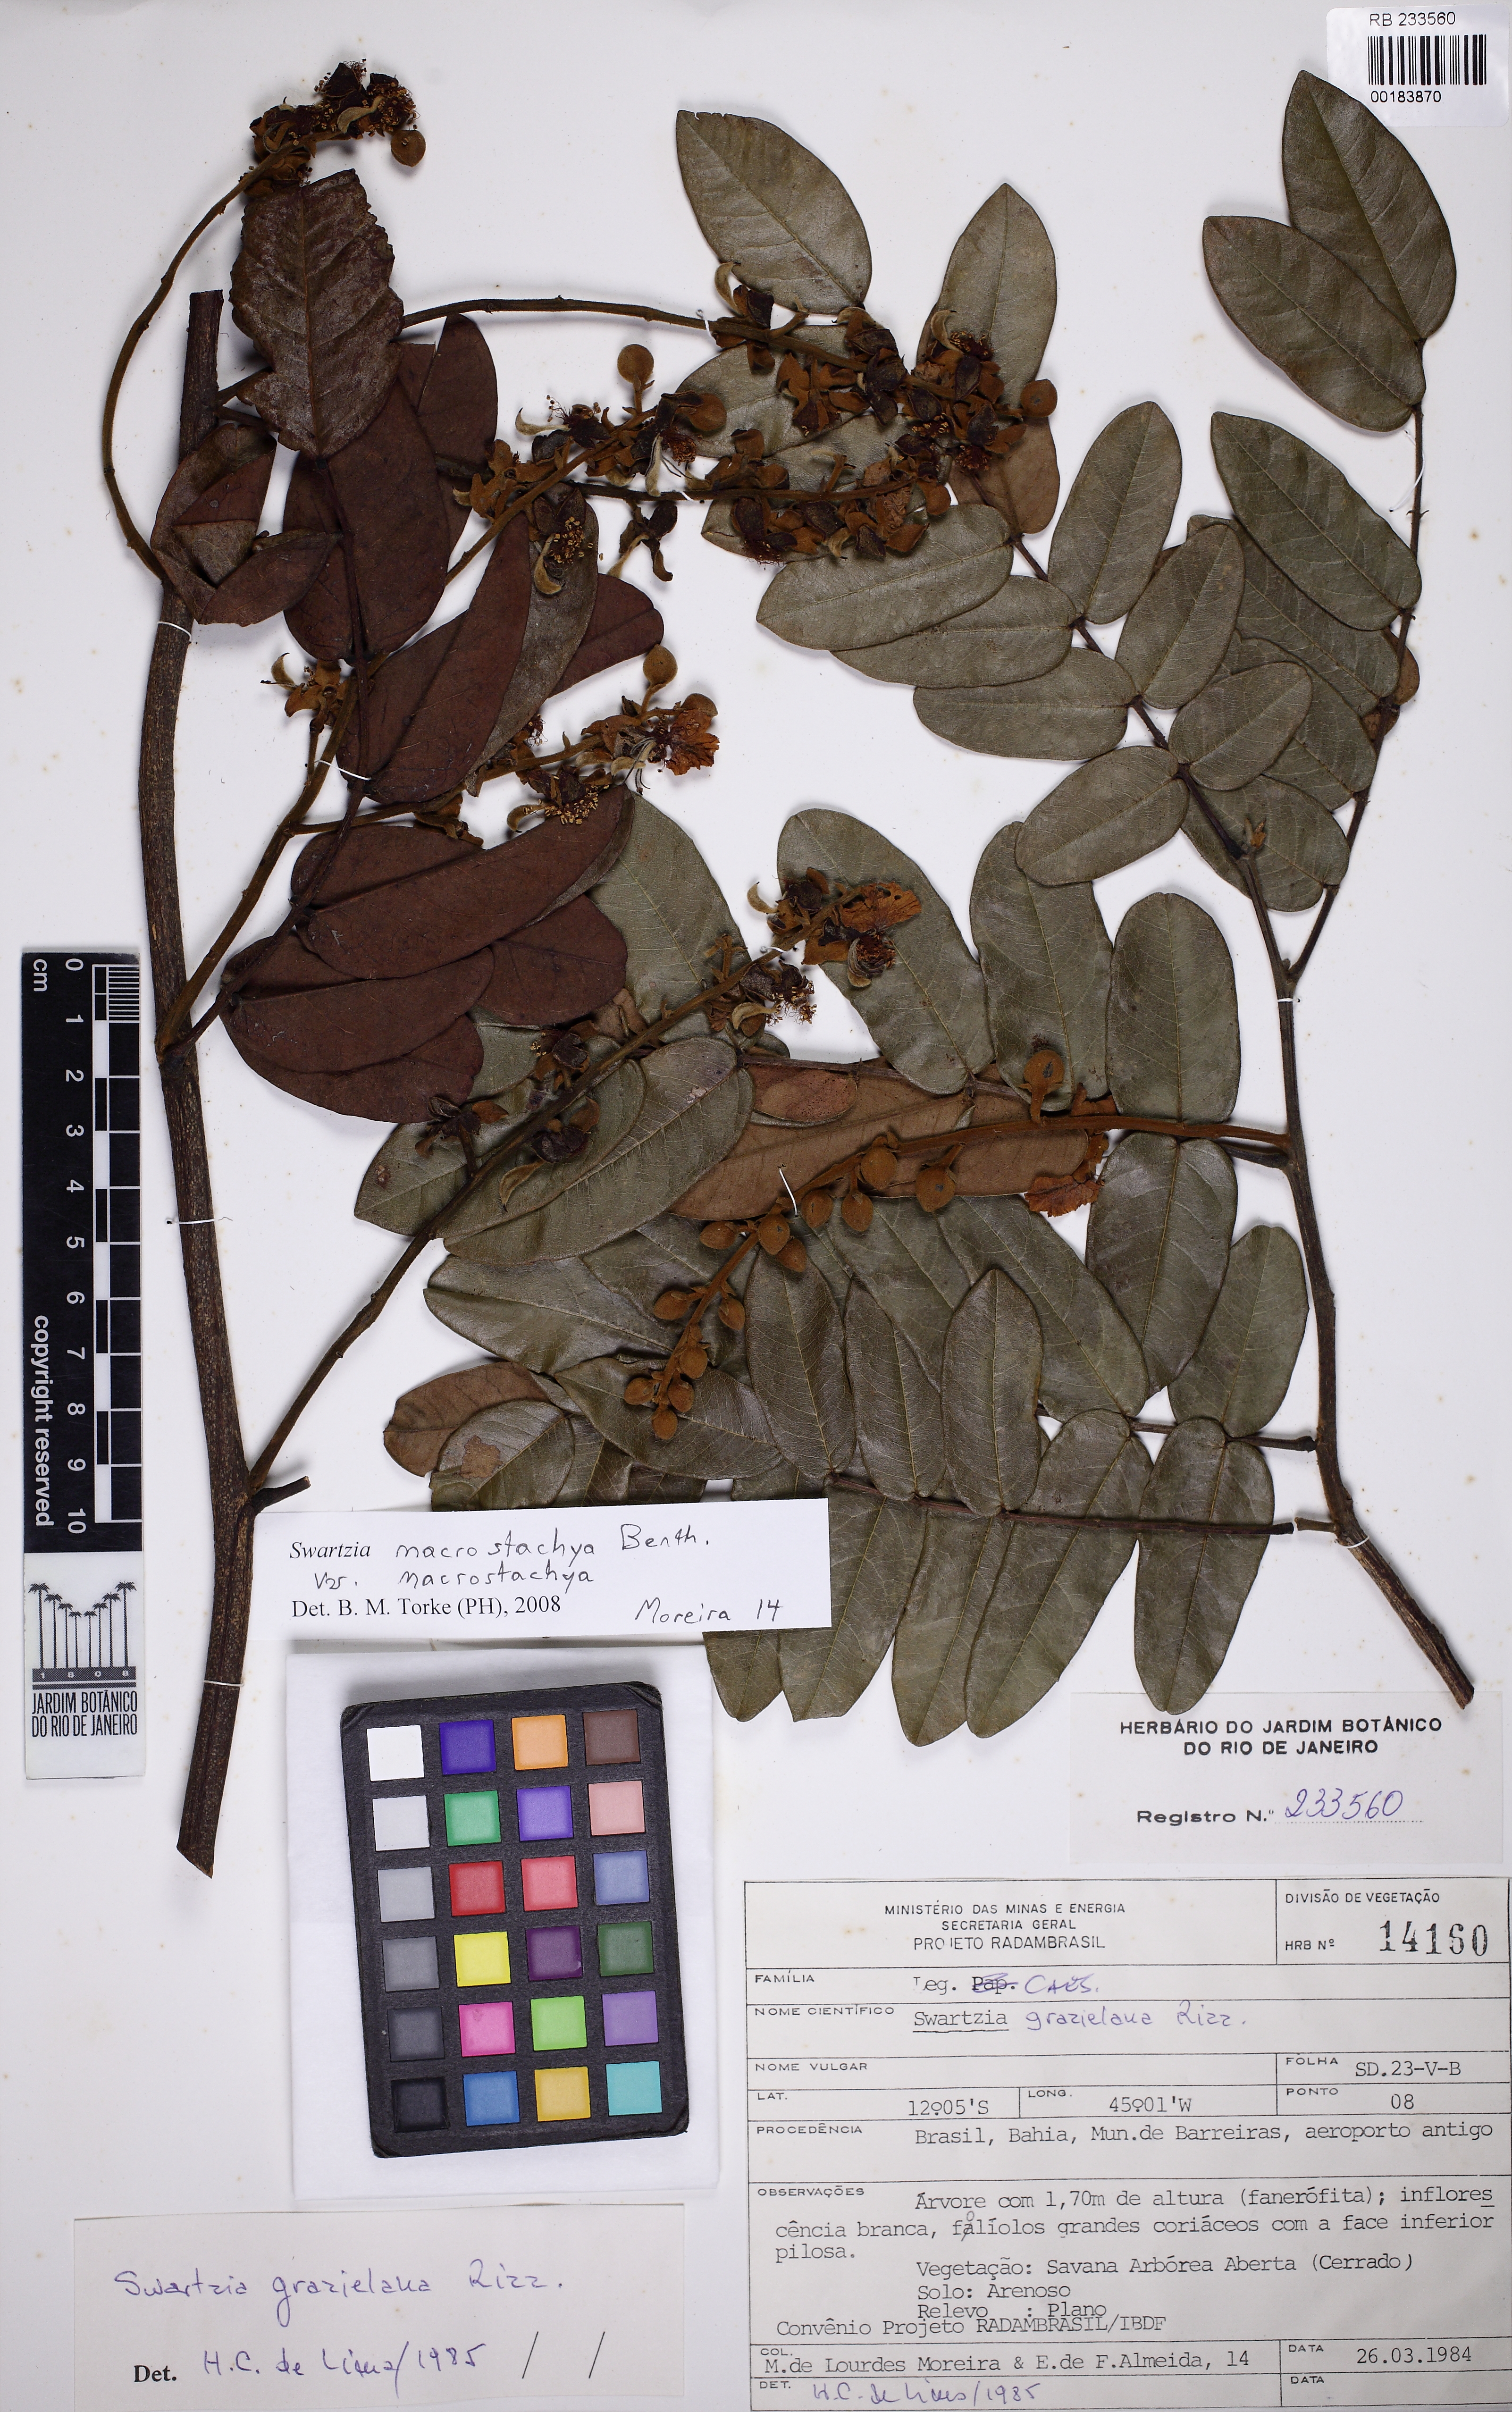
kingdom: Plantae
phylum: Tracheophyta
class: Magnoliopsida
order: Fabales
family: Fabaceae
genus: Swartzia
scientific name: Swartzia macrostachya
